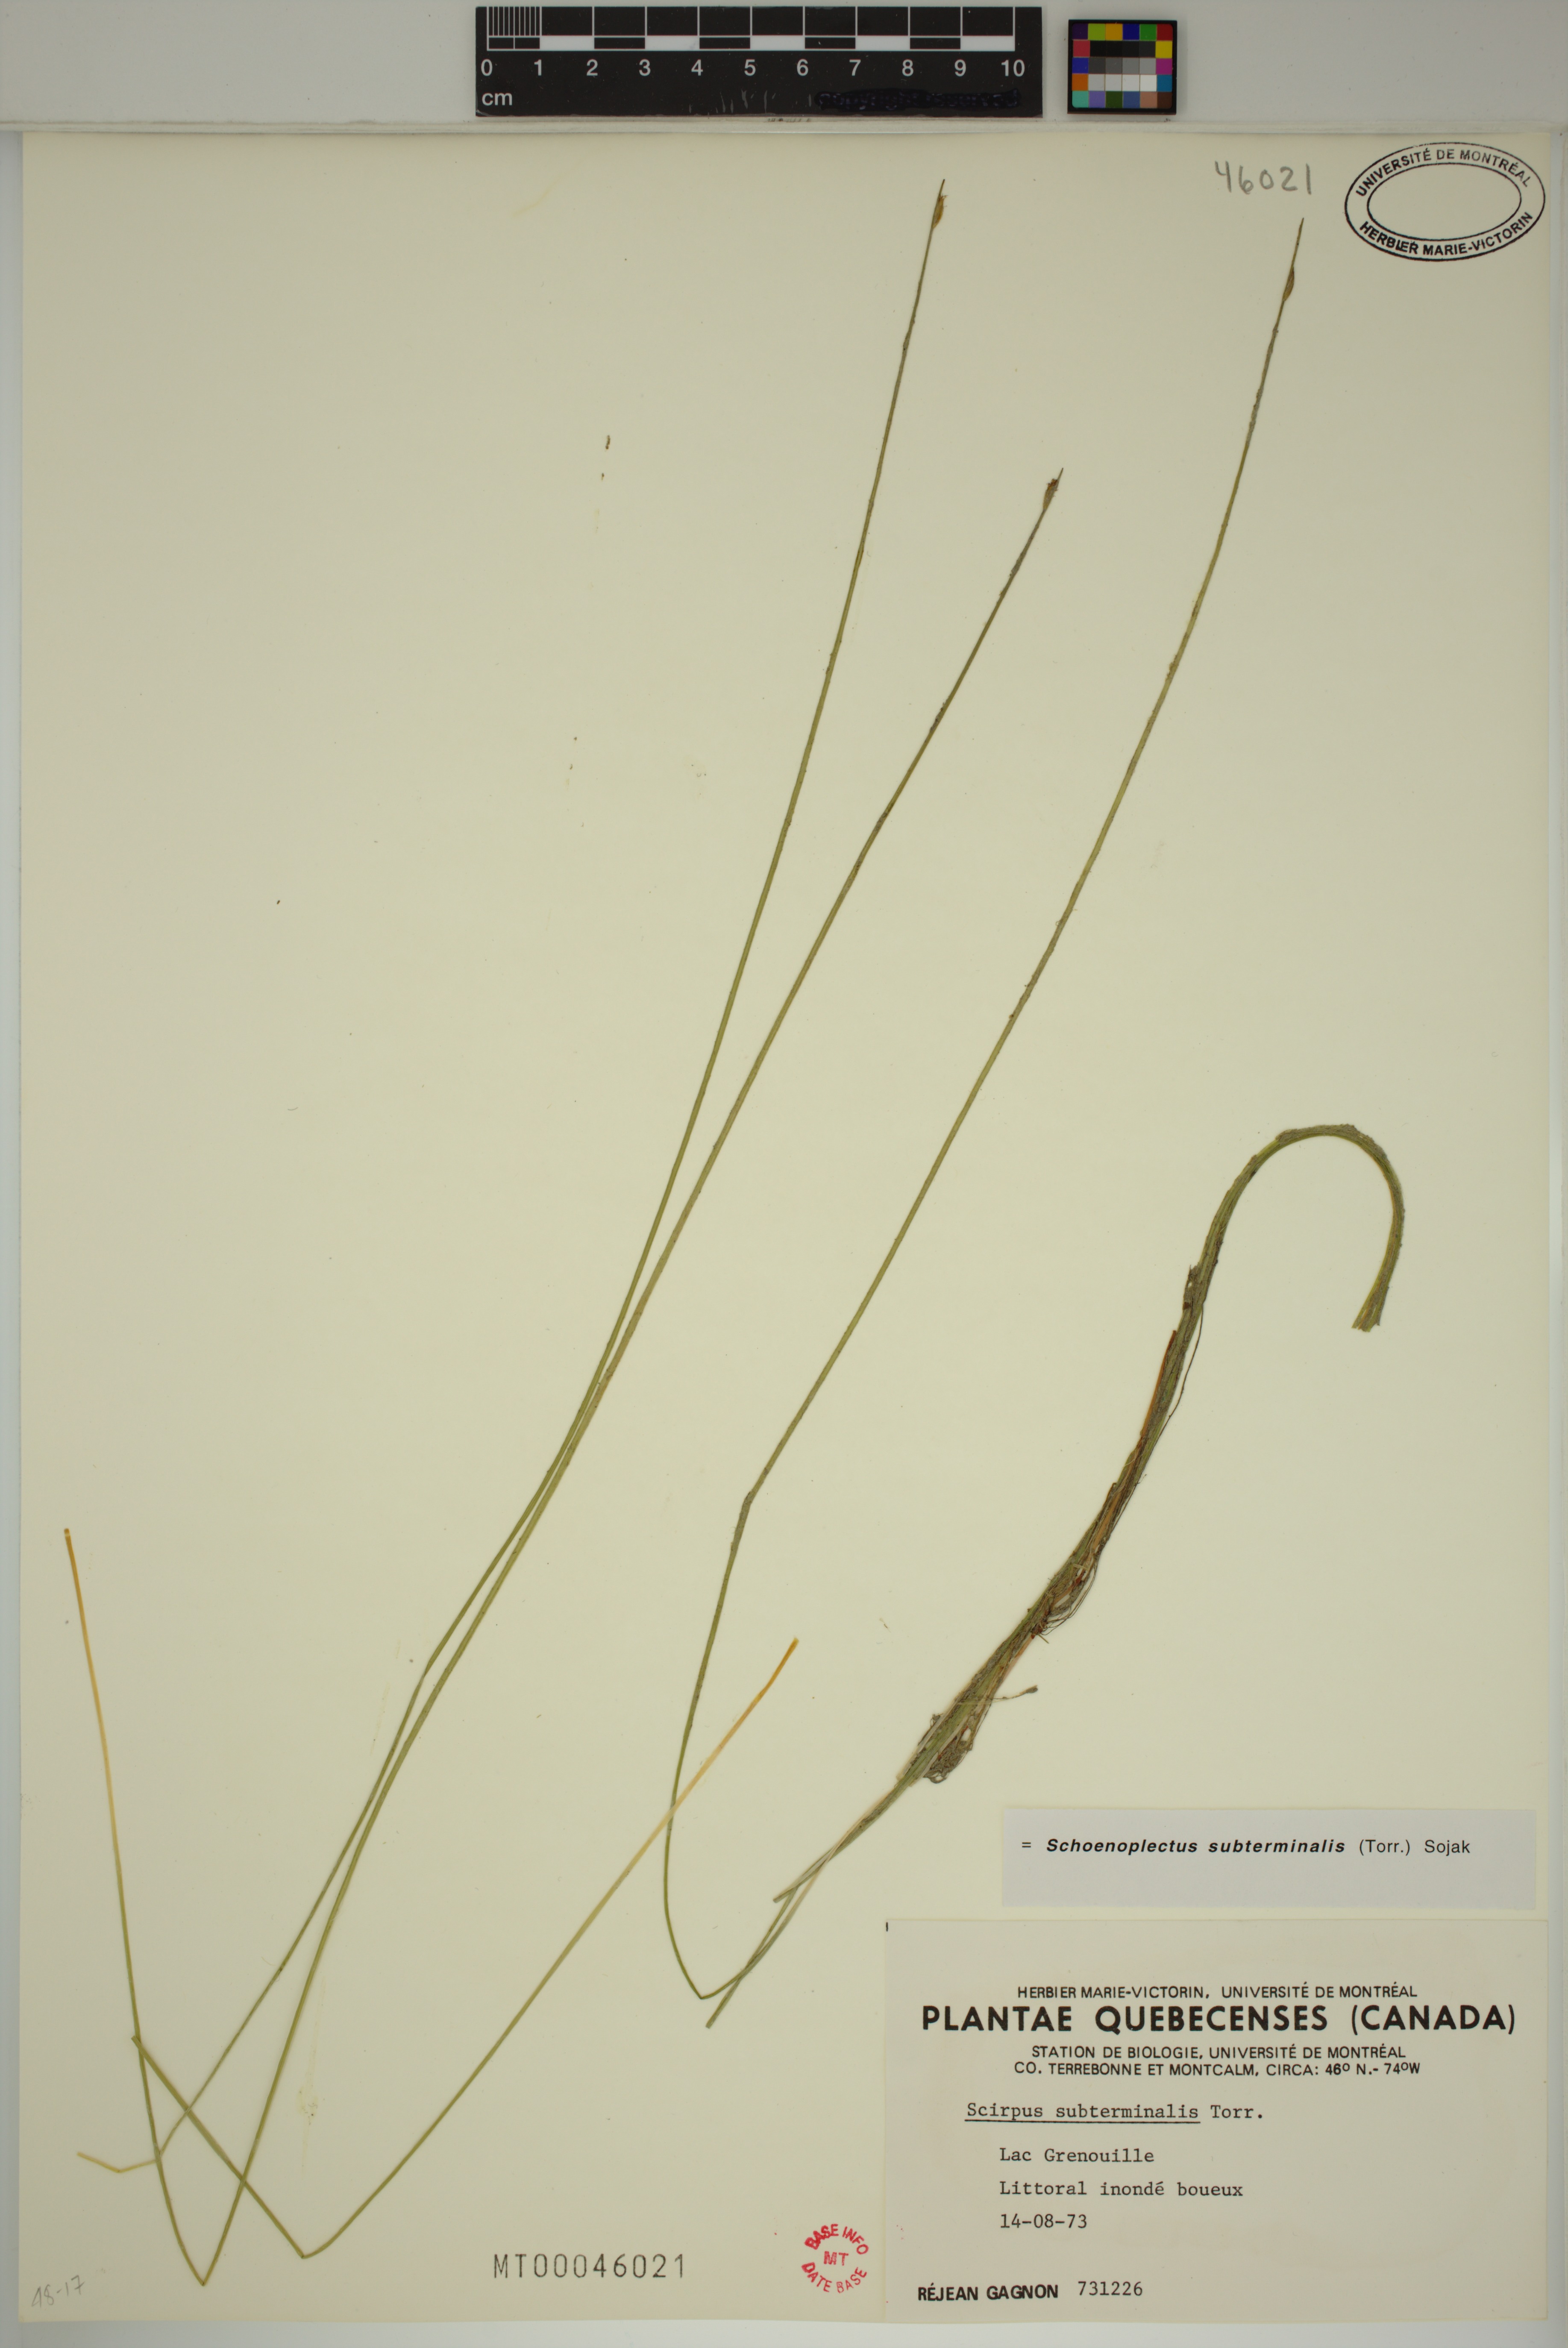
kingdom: Plantae
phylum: Tracheophyta
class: Liliopsida
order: Poales
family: Cyperaceae
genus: Schoenoplectus
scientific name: Schoenoplectus subterminalis
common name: Swaying bulrush
